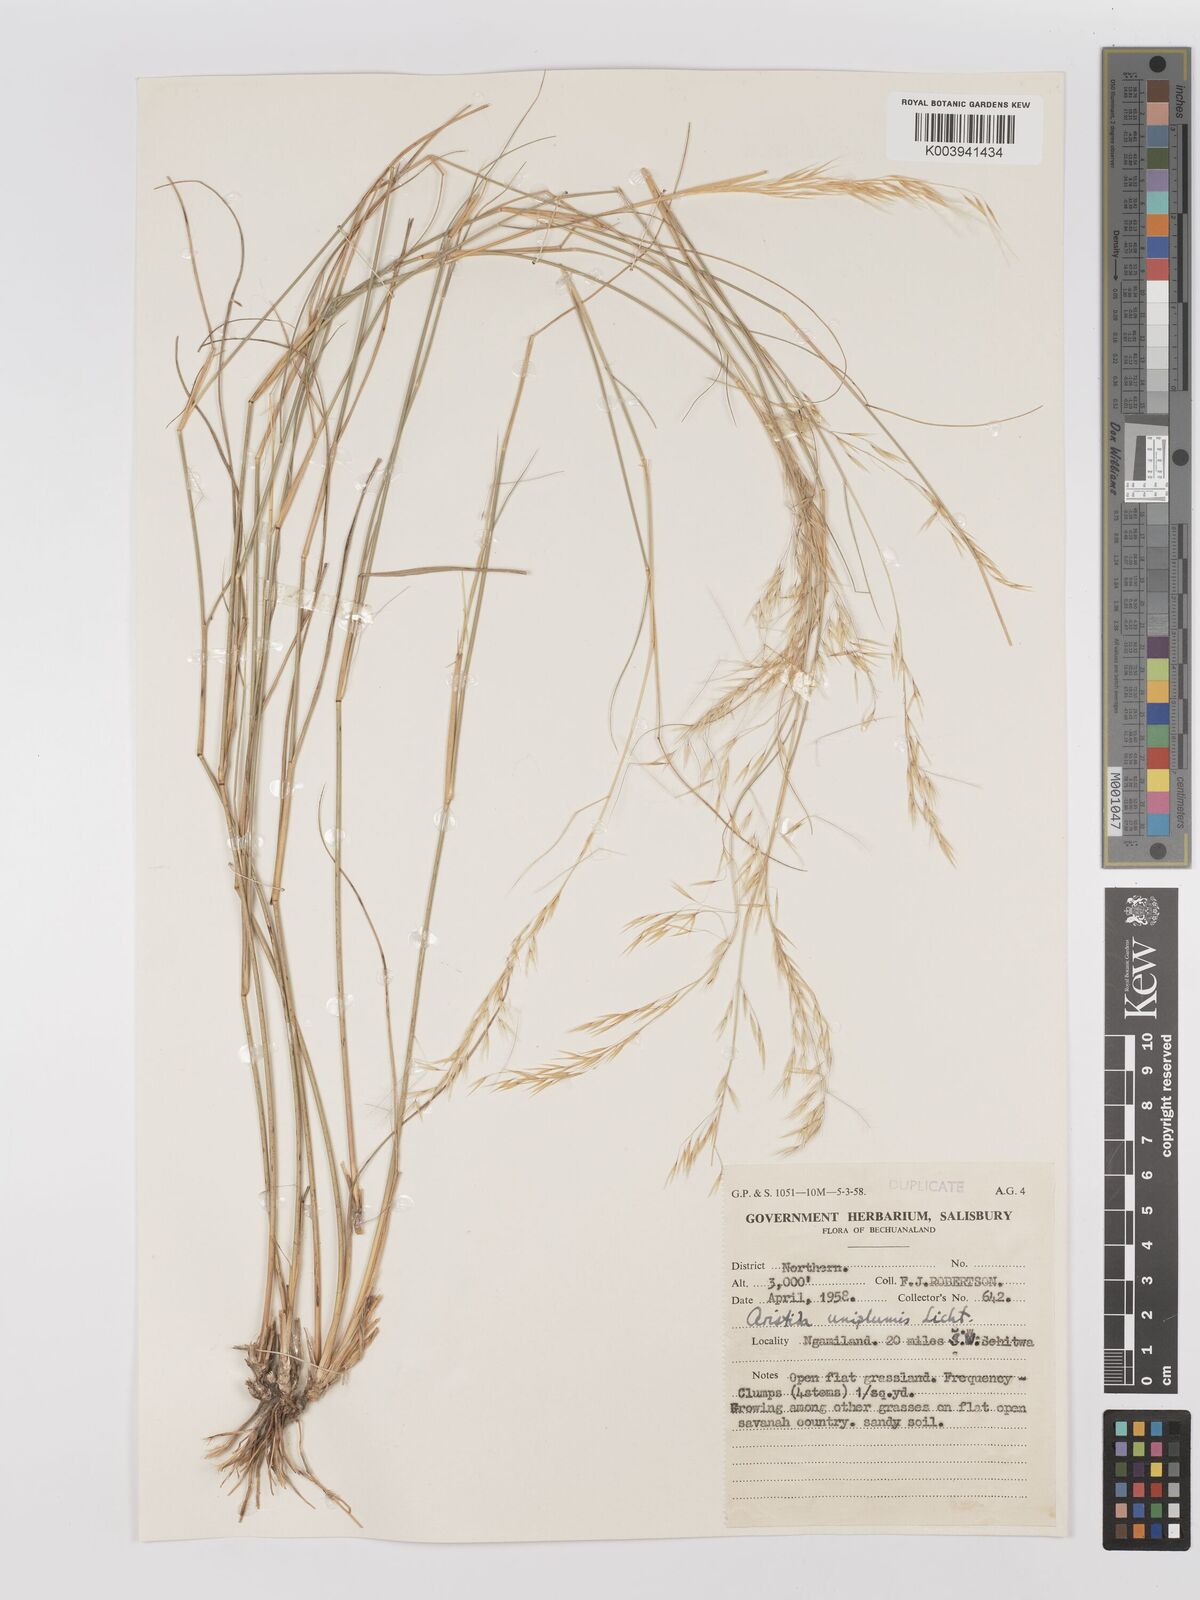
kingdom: Plantae
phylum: Tracheophyta
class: Liliopsida
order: Poales
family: Poaceae
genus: Stipagrostis
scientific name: Stipagrostis uniplumis
